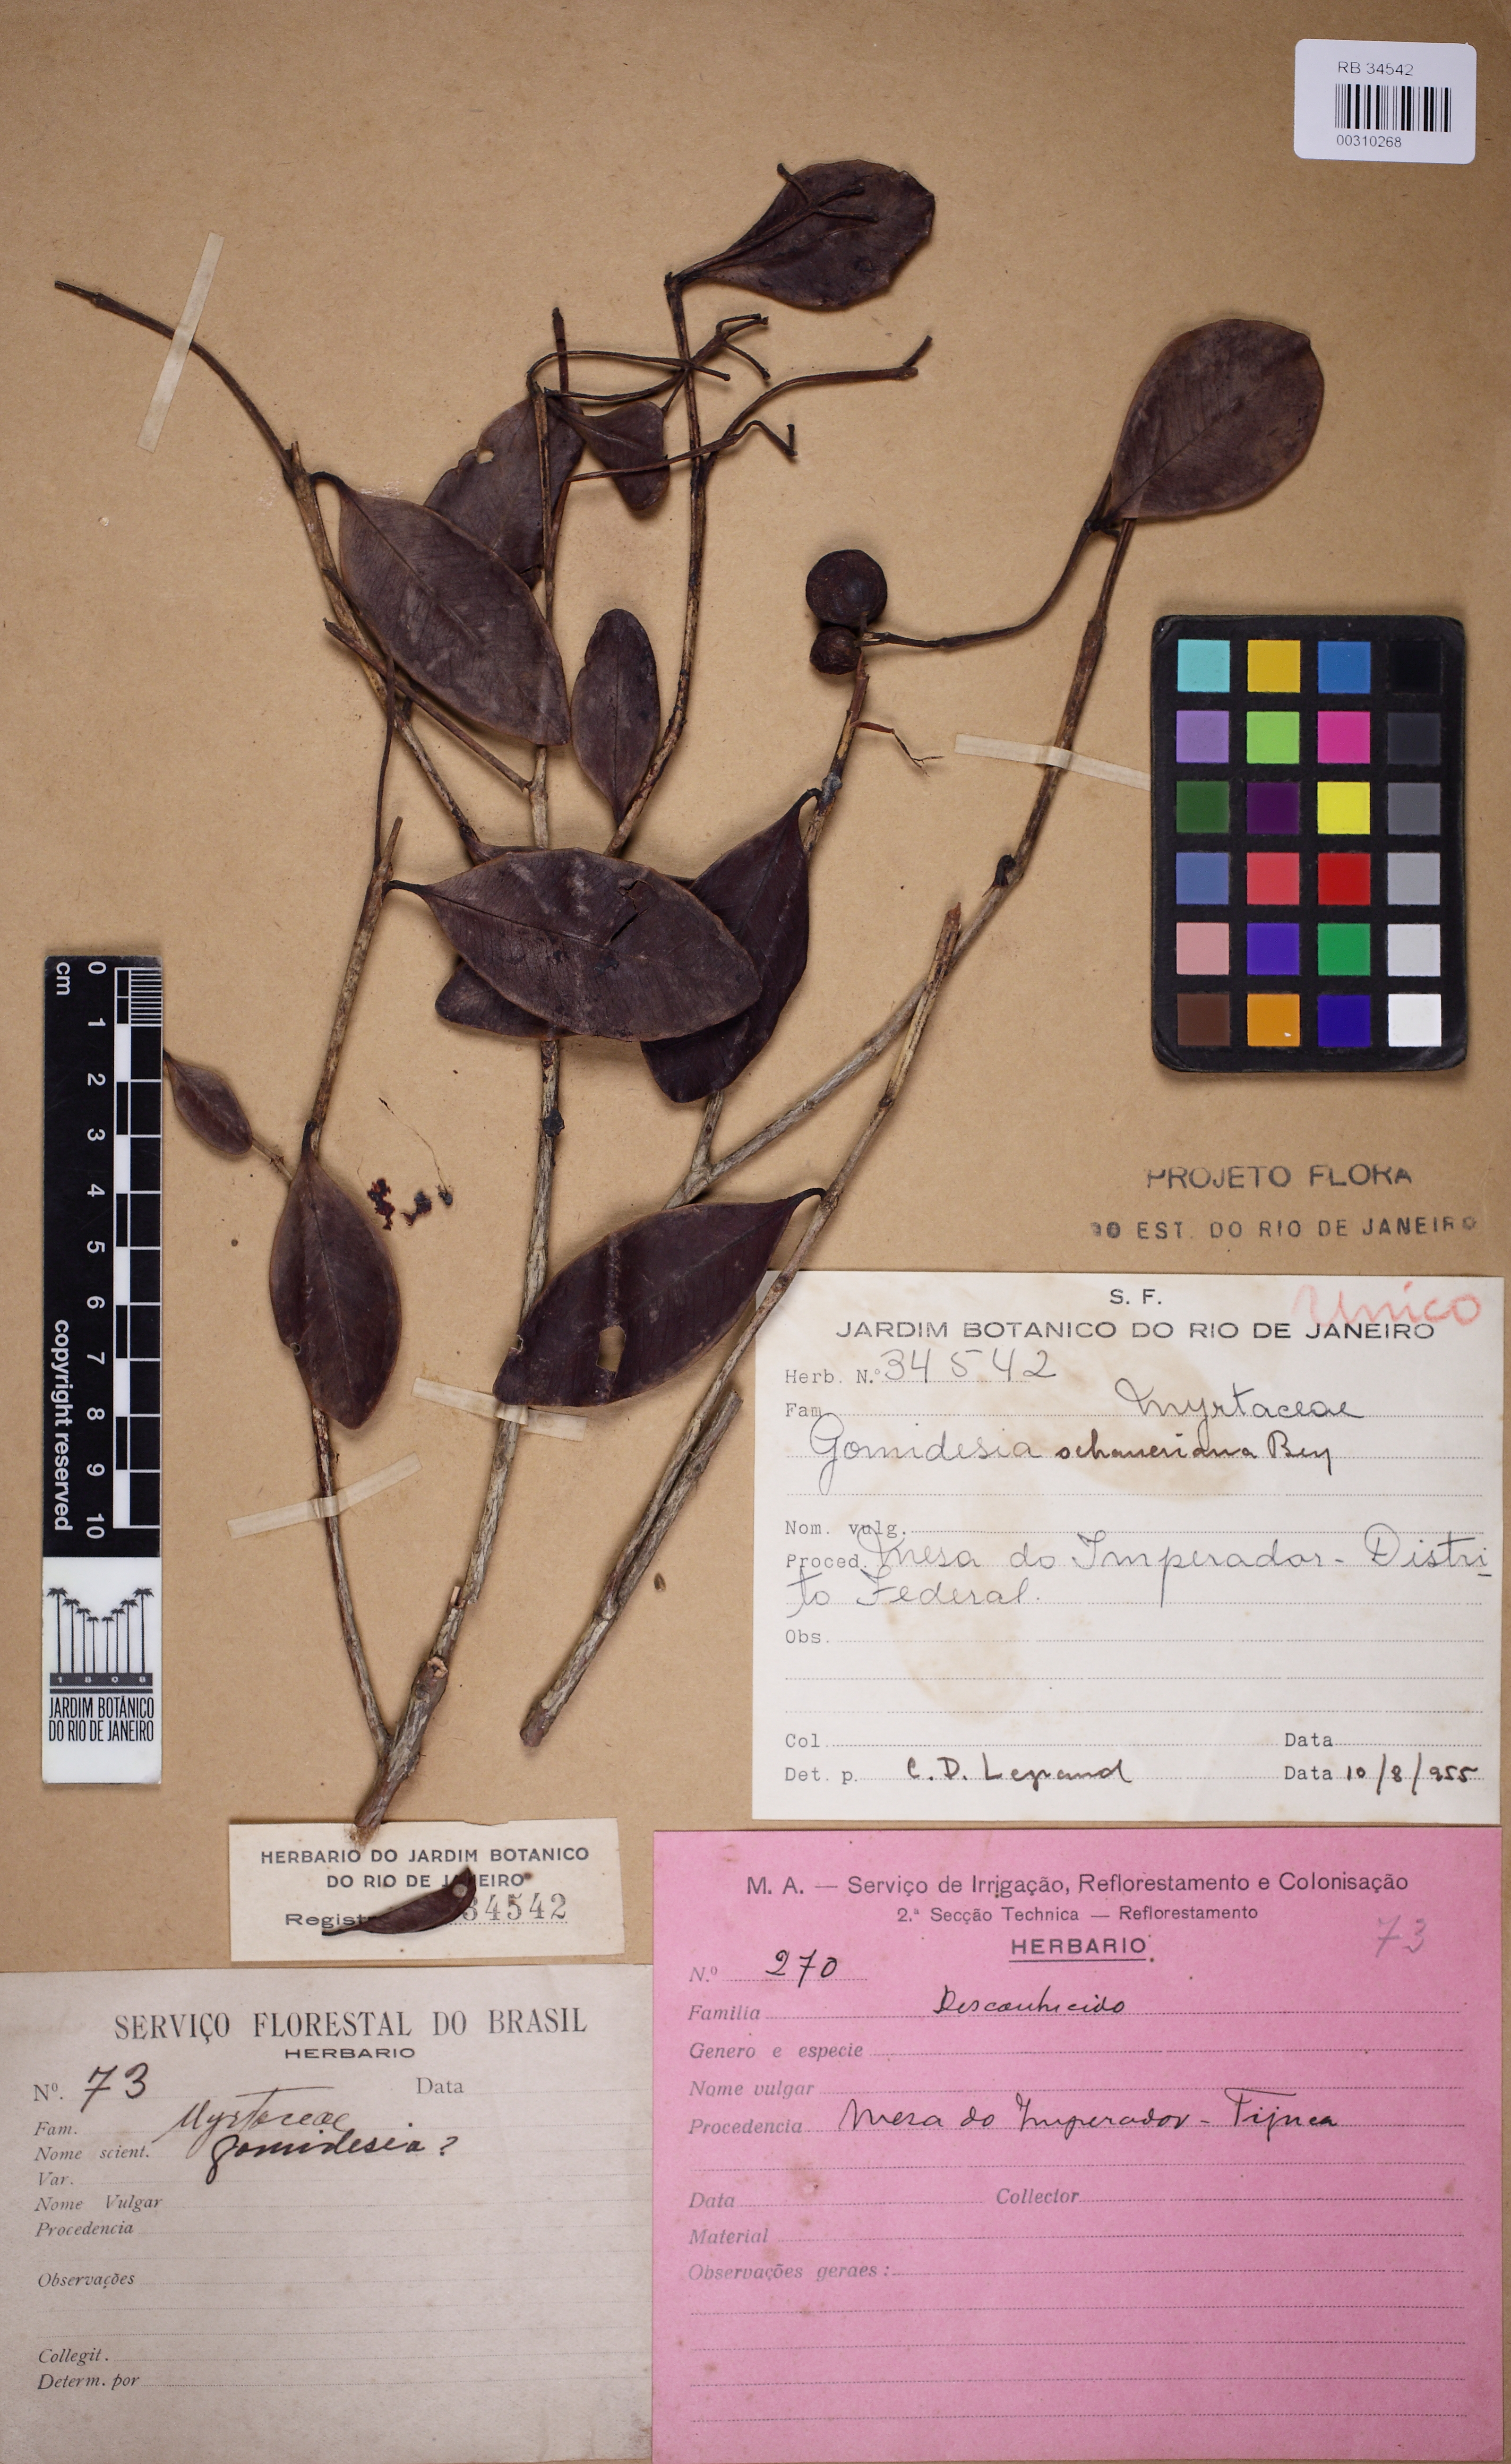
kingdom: Plantae
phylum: Tracheophyta
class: Magnoliopsida
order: Myrtales
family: Myrtaceae
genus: Myrcia
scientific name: Myrcia freyreissiana
